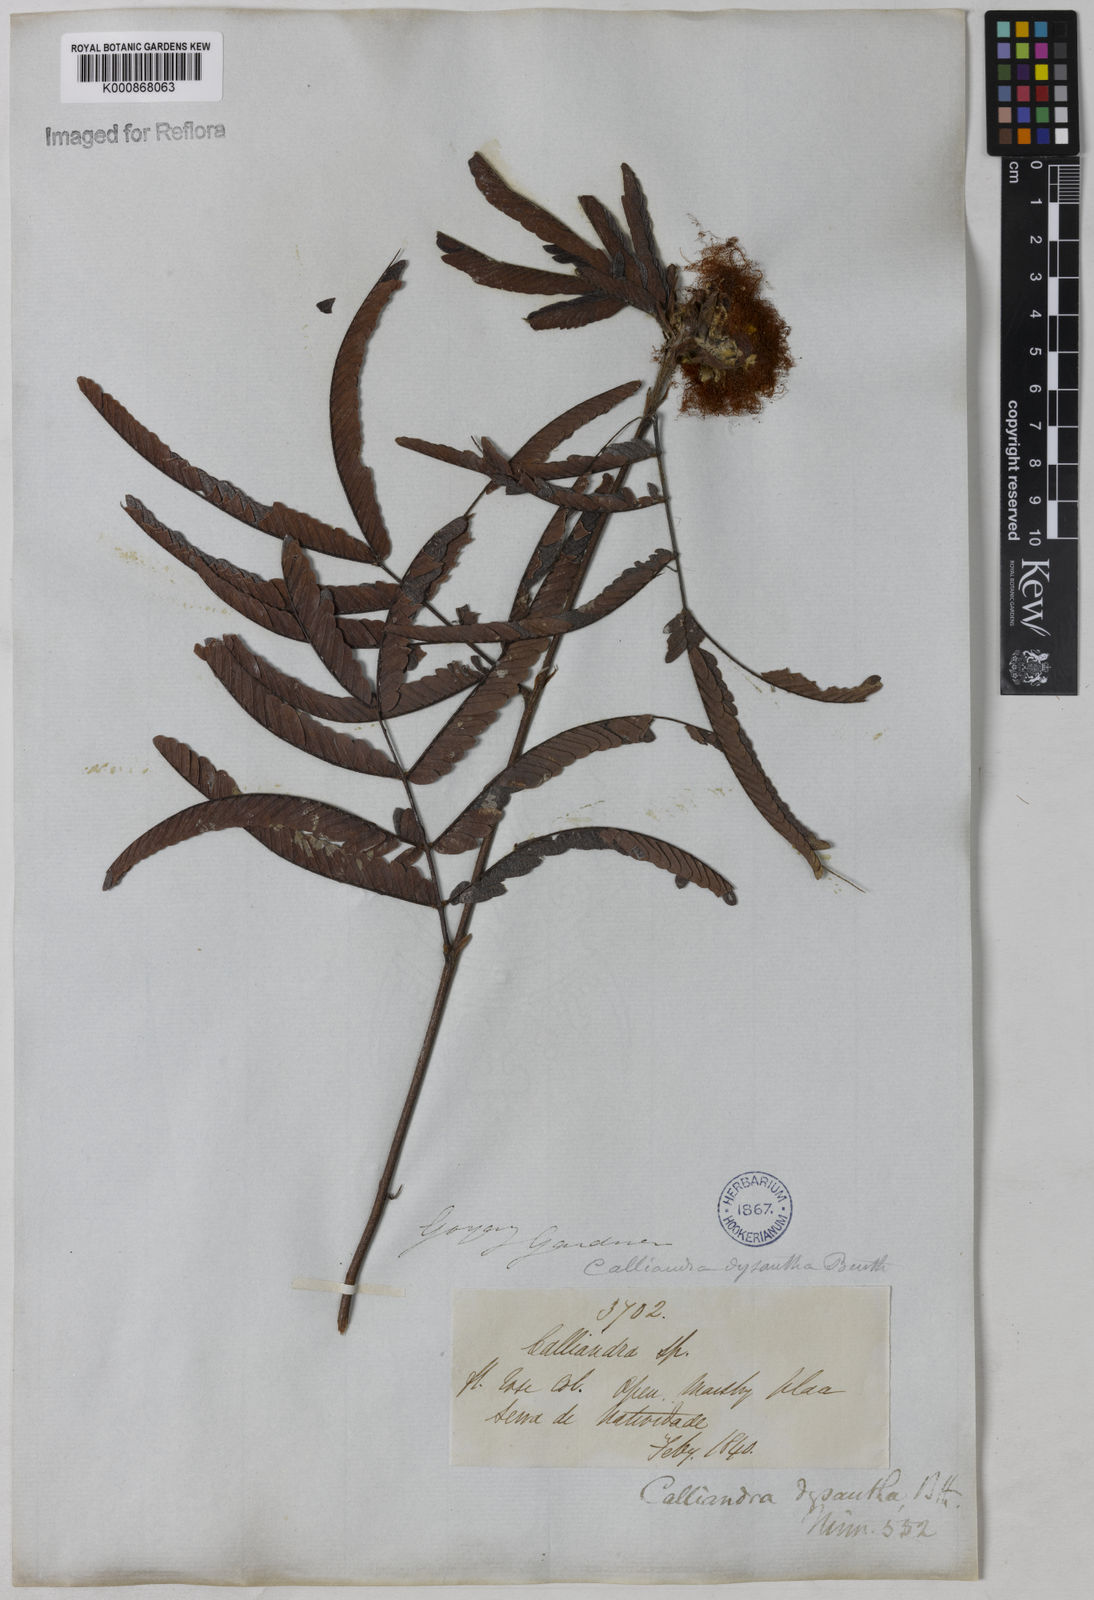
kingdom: Plantae
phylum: Tracheophyta
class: Magnoliopsida
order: Fabales
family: Fabaceae
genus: Calliandra
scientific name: Calliandra dysantha
